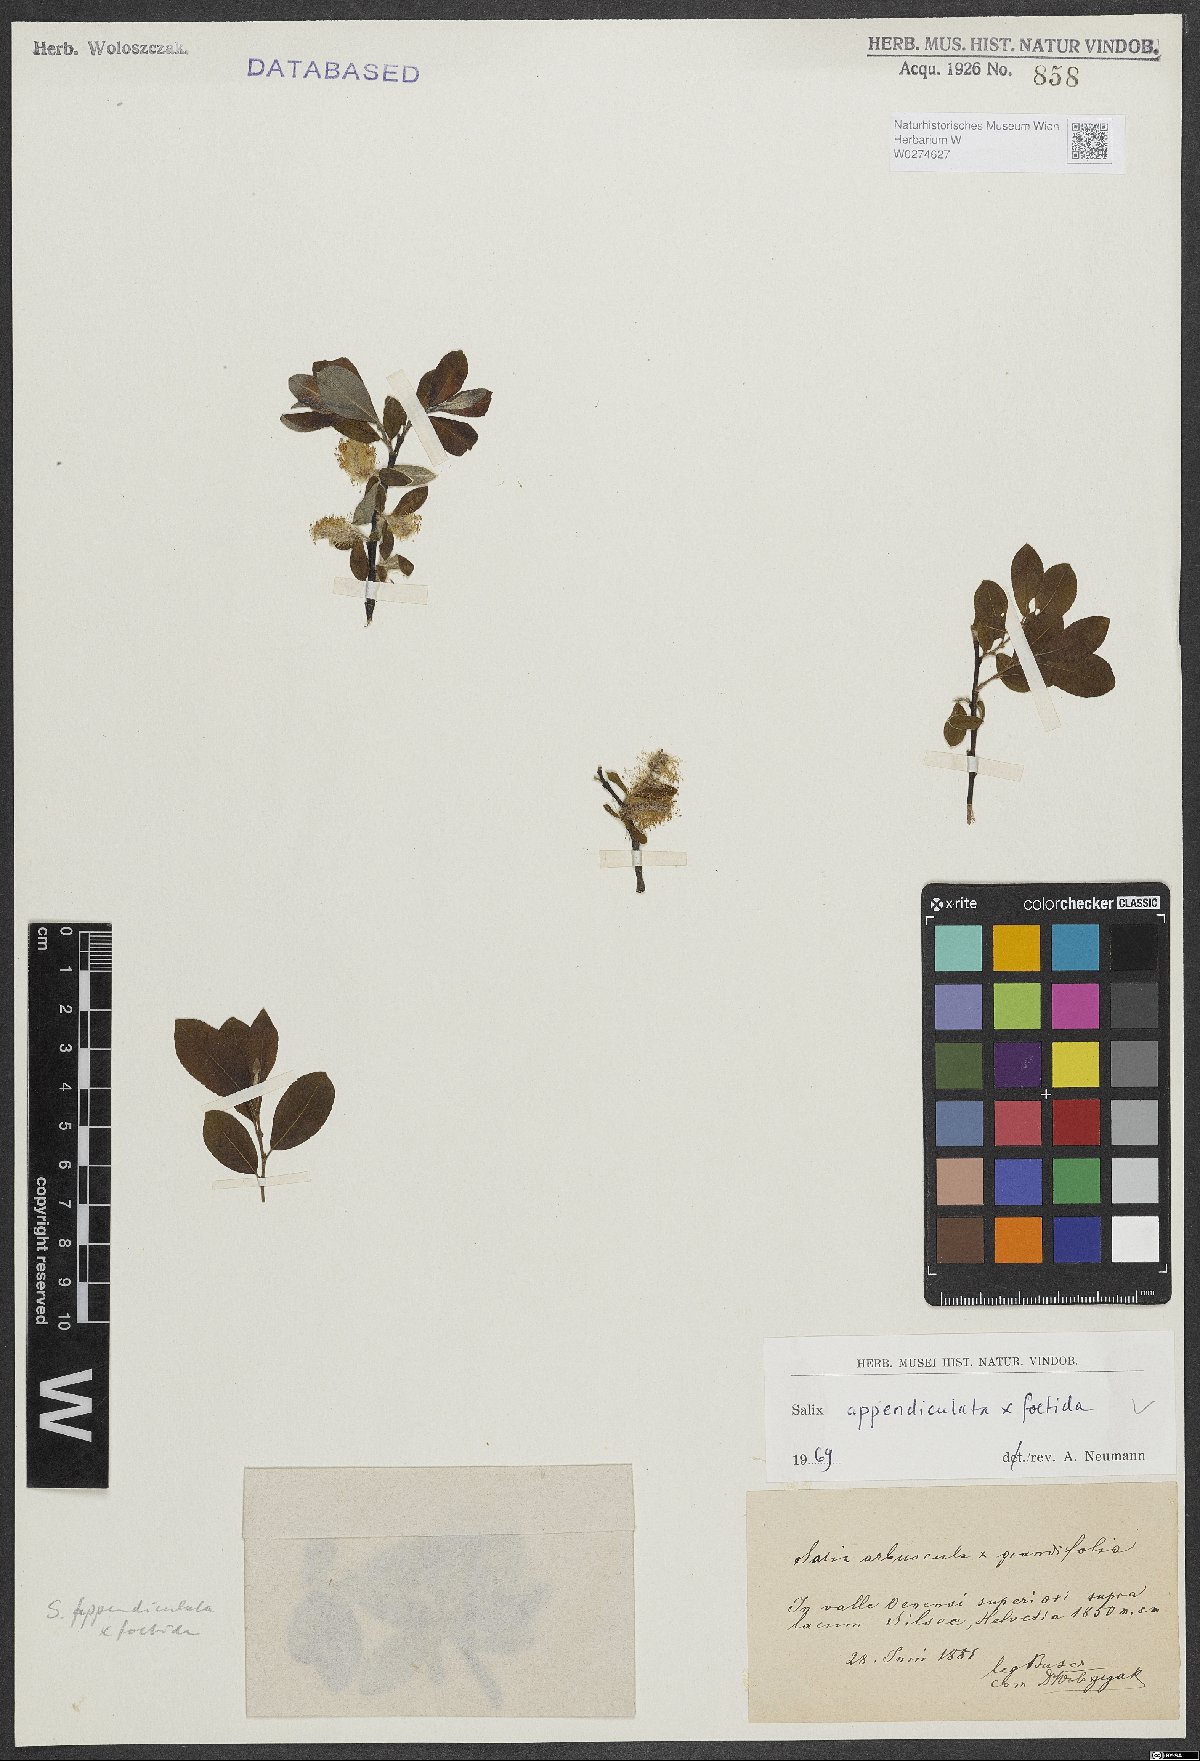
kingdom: Plantae
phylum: Tracheophyta
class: Magnoliopsida
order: Malpighiales
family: Salicaceae
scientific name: Salicaceae
